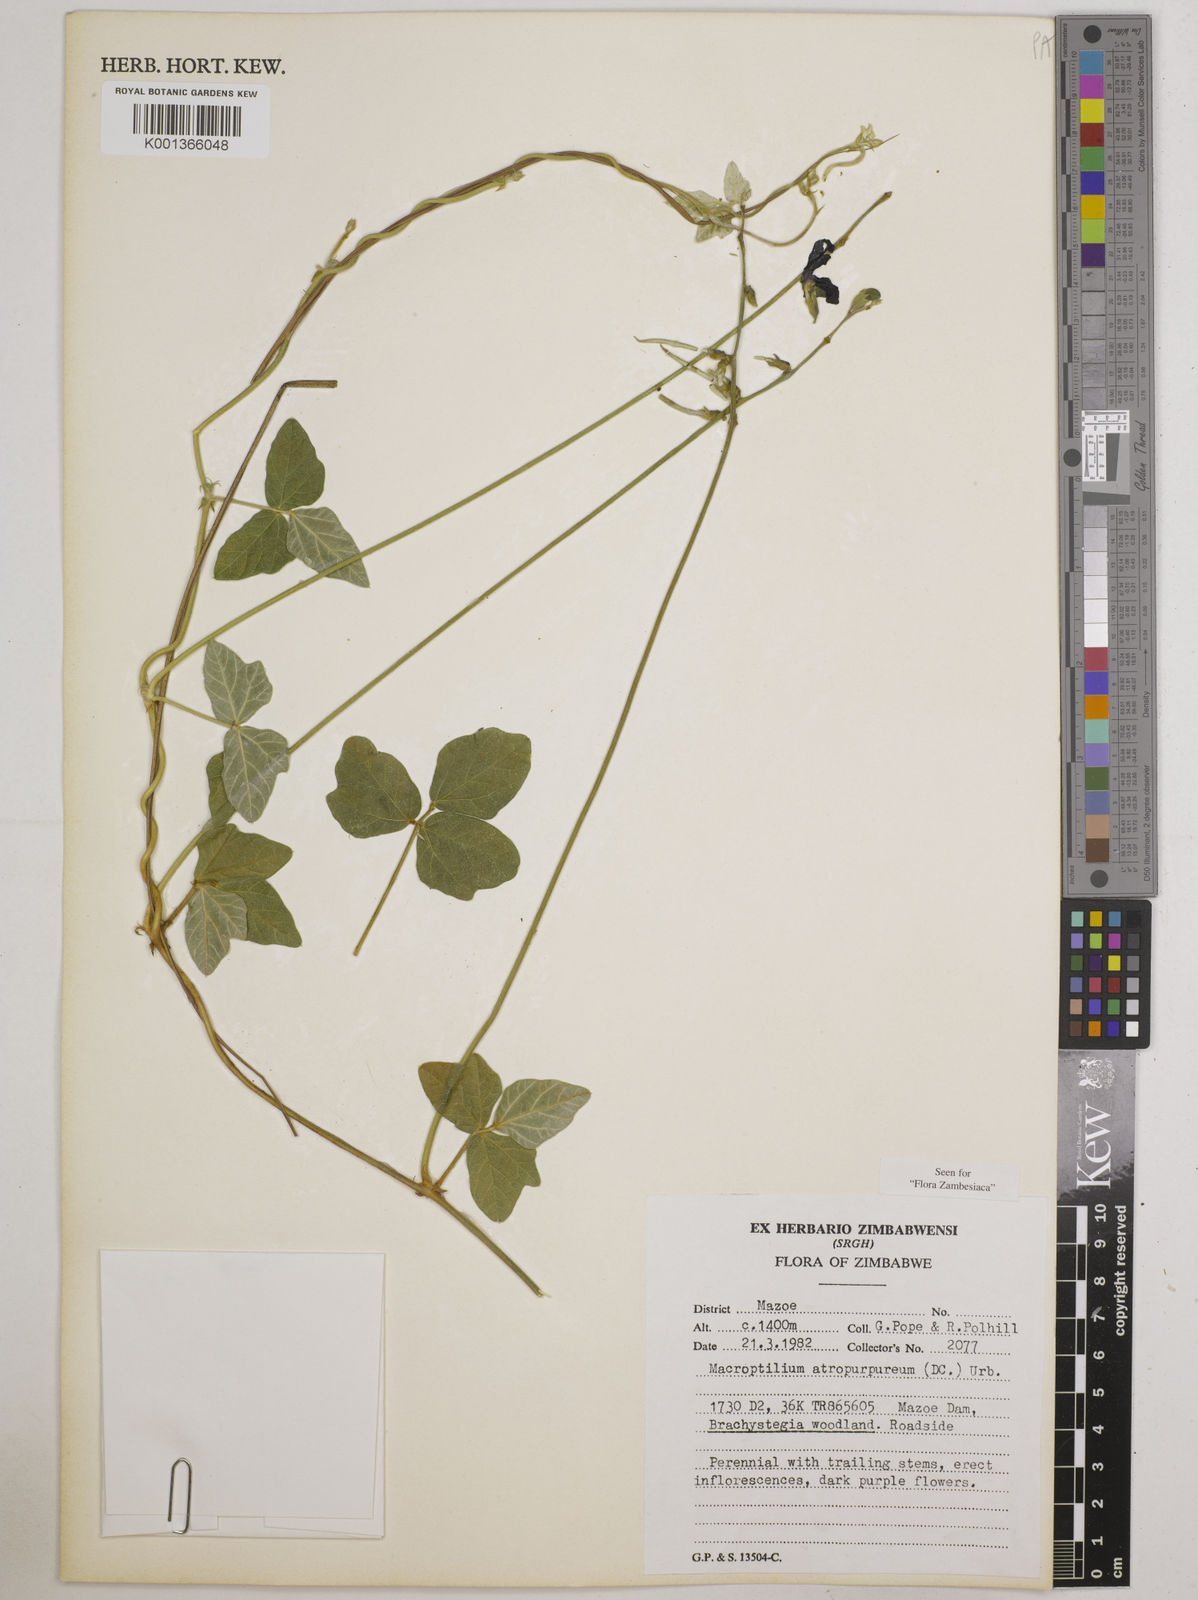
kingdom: Plantae
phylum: Tracheophyta
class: Magnoliopsida
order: Fabales
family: Fabaceae
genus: Macroptilium
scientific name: Macroptilium atropurpureum
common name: Purple bushbean
